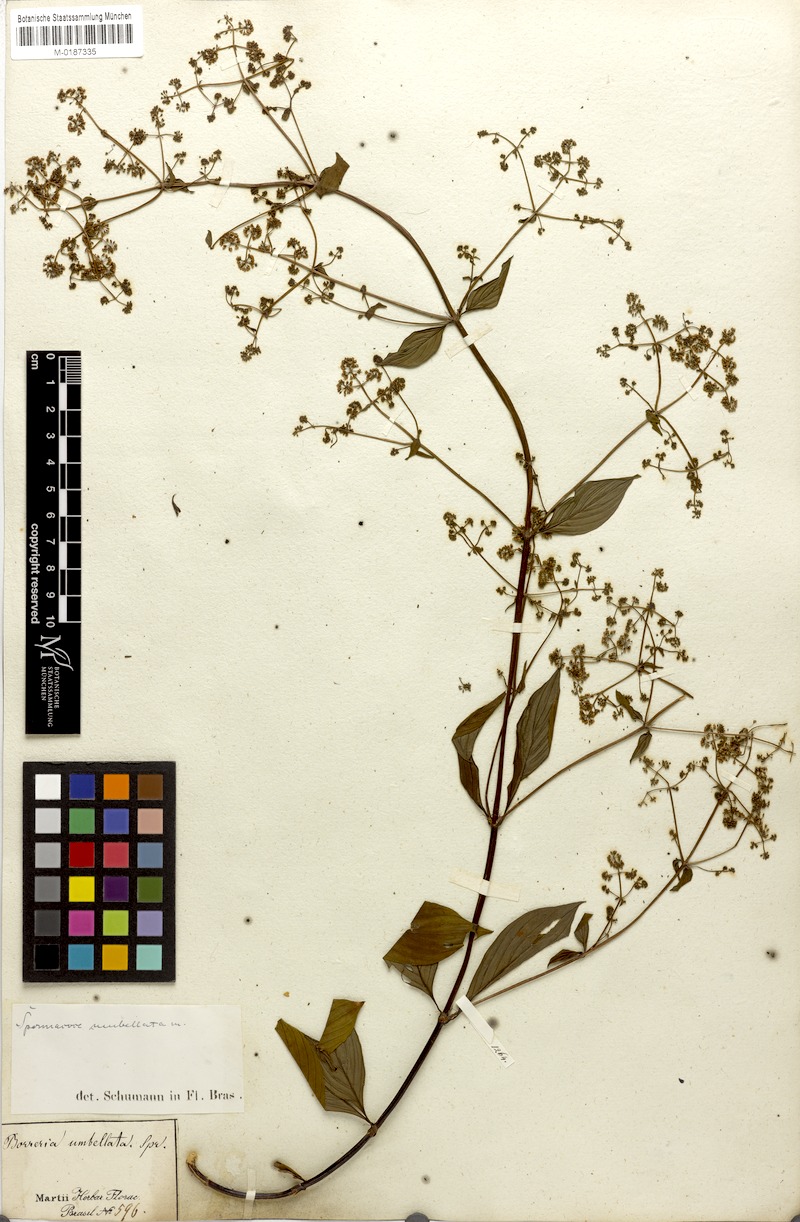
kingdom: Plantae
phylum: Tracheophyta
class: Magnoliopsida
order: Gentianales
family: Rubiaceae
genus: Emmeorhiza
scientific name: Emmeorhiza umbellata
